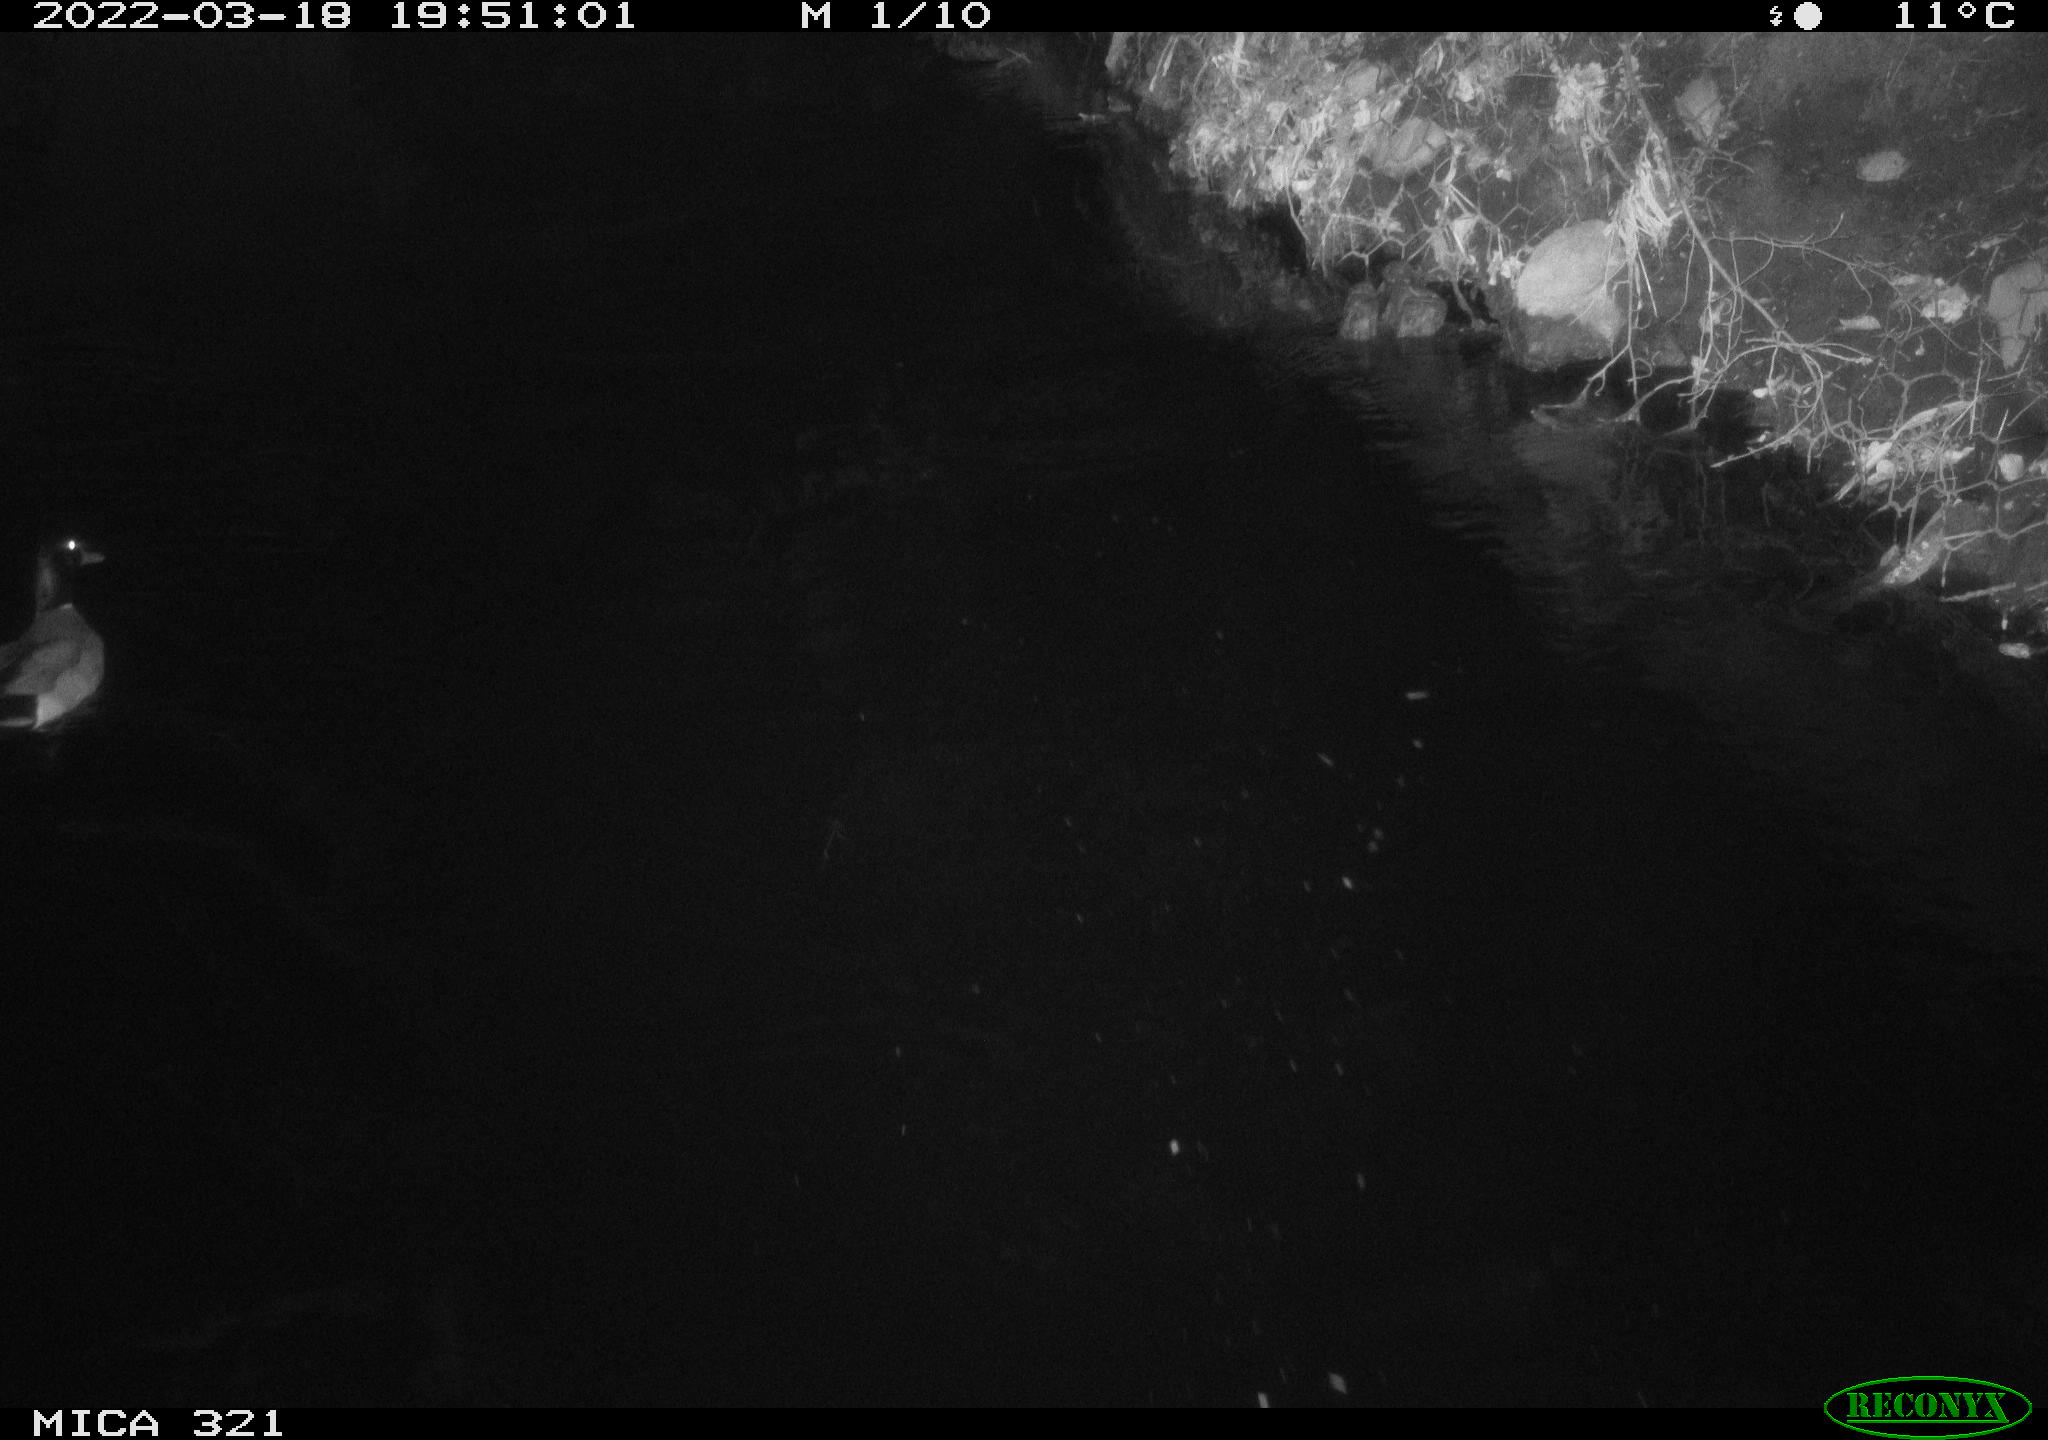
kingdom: Animalia
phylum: Chordata
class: Aves
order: Anseriformes
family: Anatidae
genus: Anas
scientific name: Anas platyrhynchos
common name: Mallard
